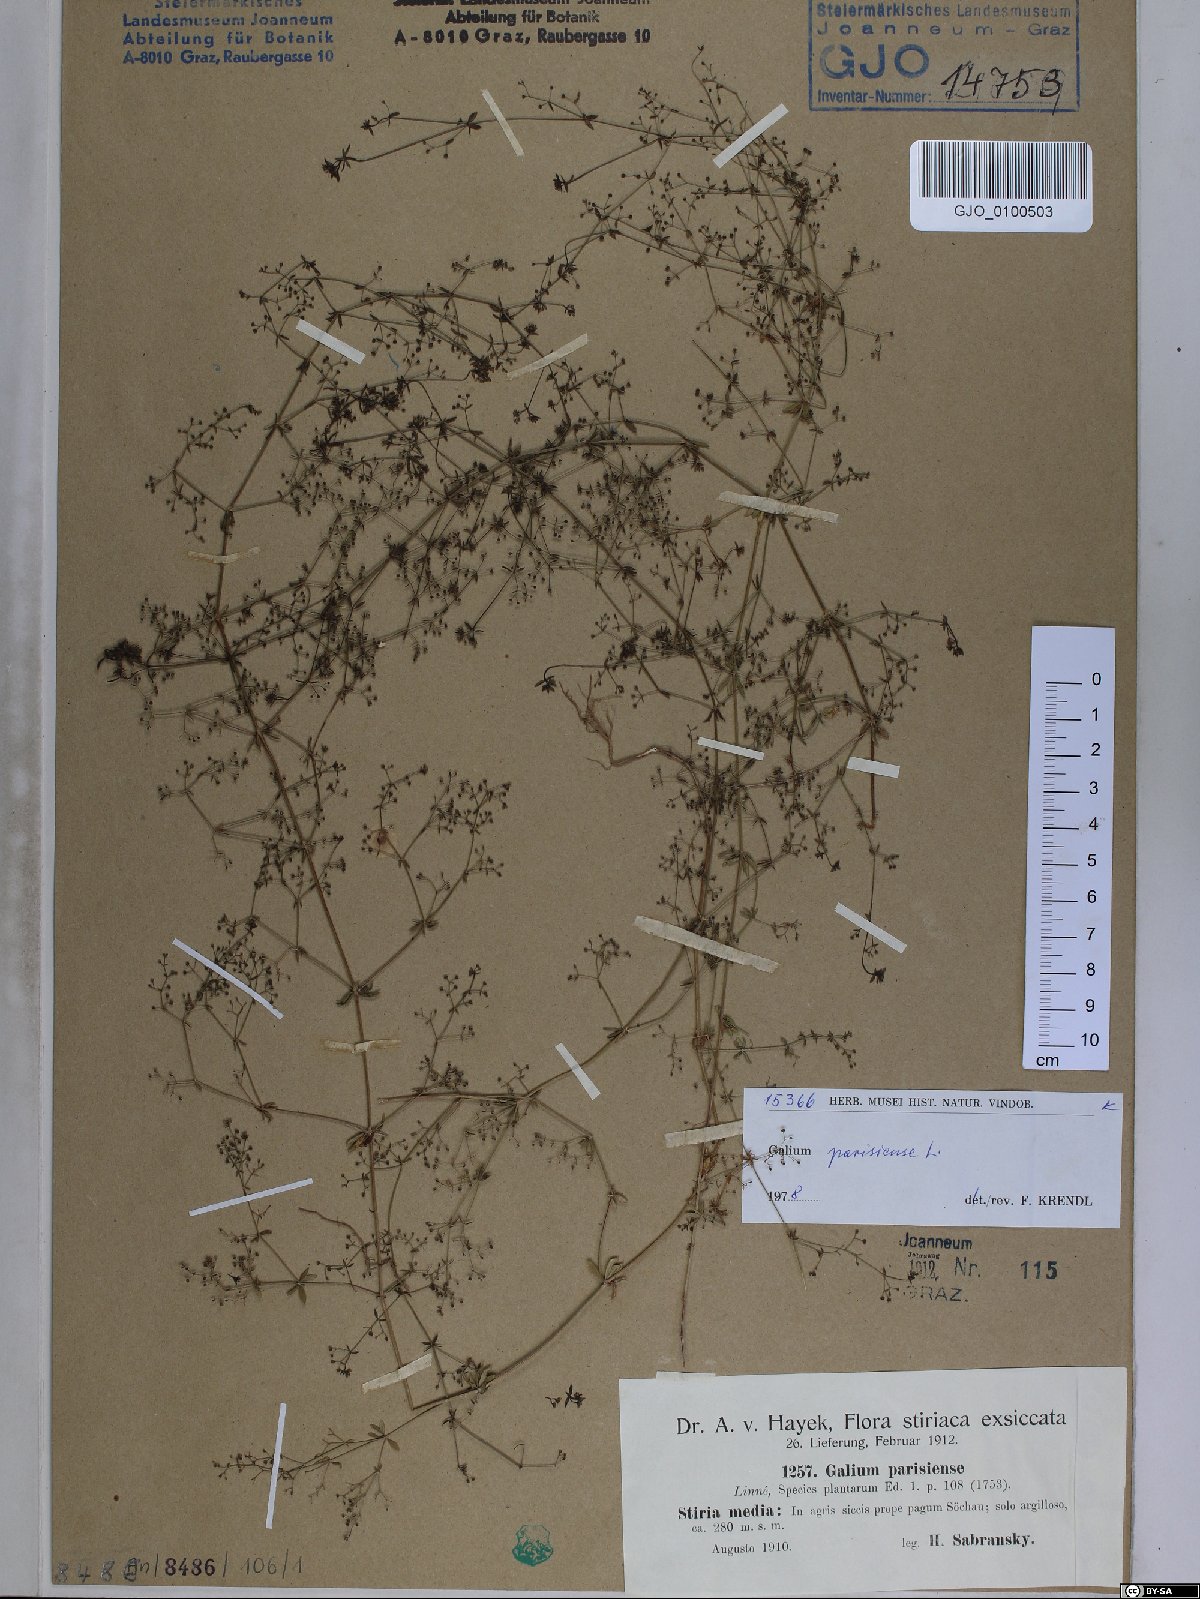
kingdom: Plantae
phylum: Tracheophyta
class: Magnoliopsida
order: Gentianales
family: Rubiaceae
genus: Galium
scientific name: Galium parisiense
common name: Wall bedstraw
